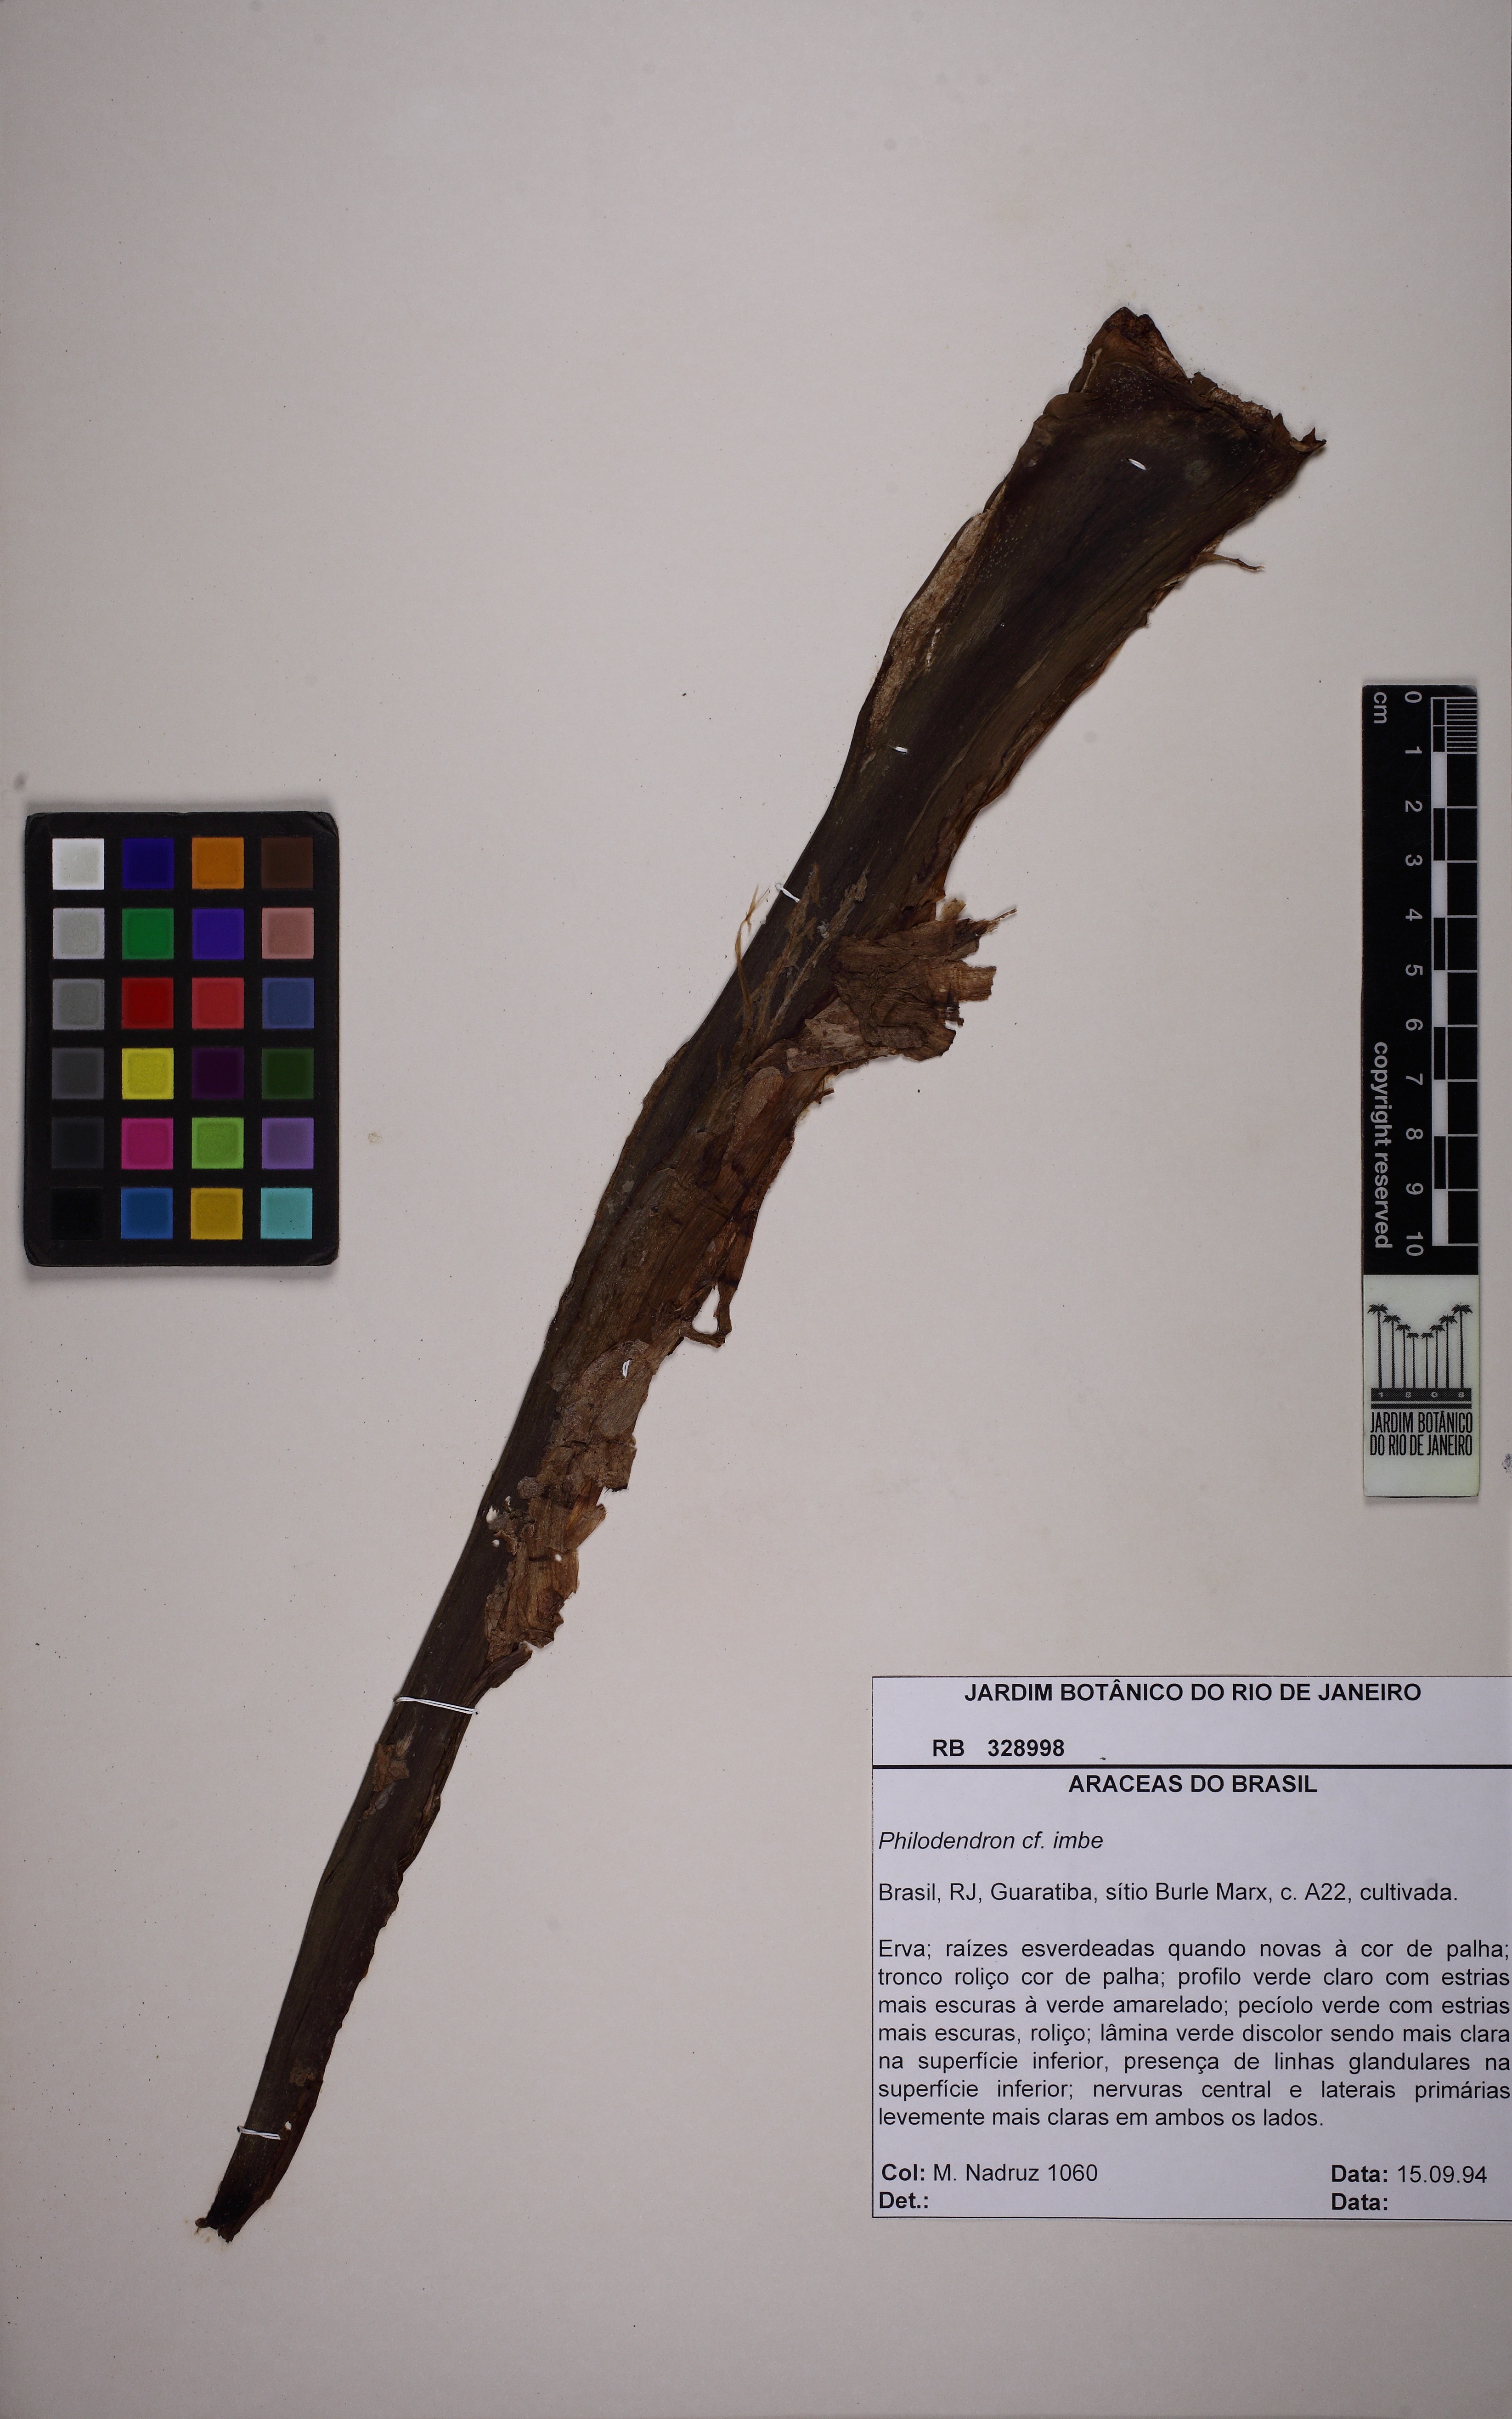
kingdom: Plantae
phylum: Tracheophyta
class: Liliopsida
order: Alismatales
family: Araceae
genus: Philodendron
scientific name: Philodendron imbe
